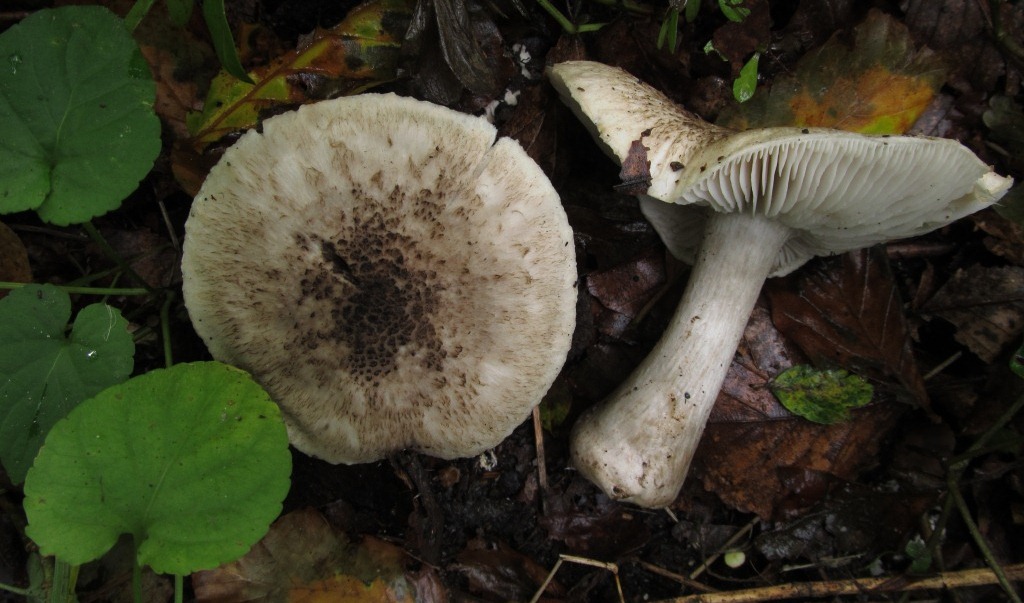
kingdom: Fungi
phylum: Basidiomycota
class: Agaricomycetes
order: Agaricales
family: Tricholomataceae
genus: Tricholoma
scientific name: Tricholoma basirubens
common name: rødfodet ridderhat
